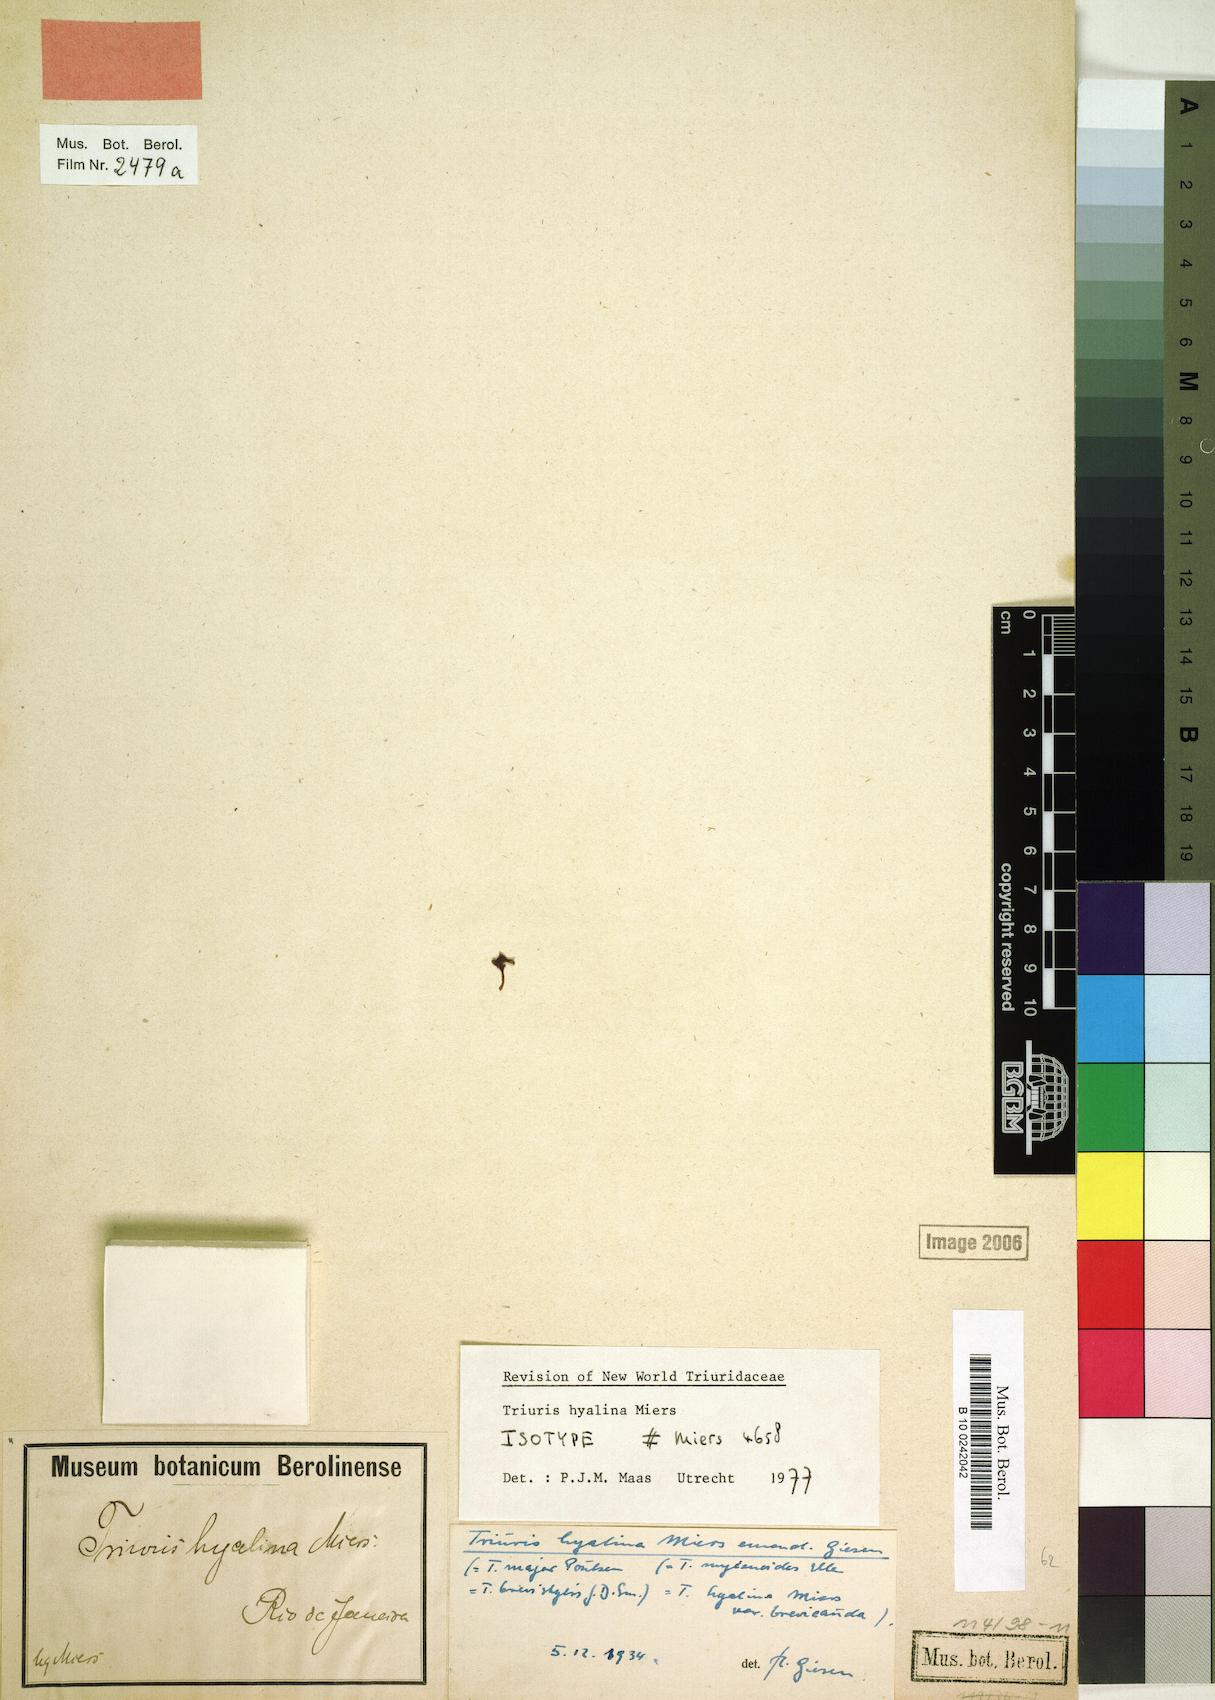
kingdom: Plantae
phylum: Tracheophyta
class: Liliopsida
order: Pandanales
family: Triuridaceae
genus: Triuris
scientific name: Triuris hyalina
